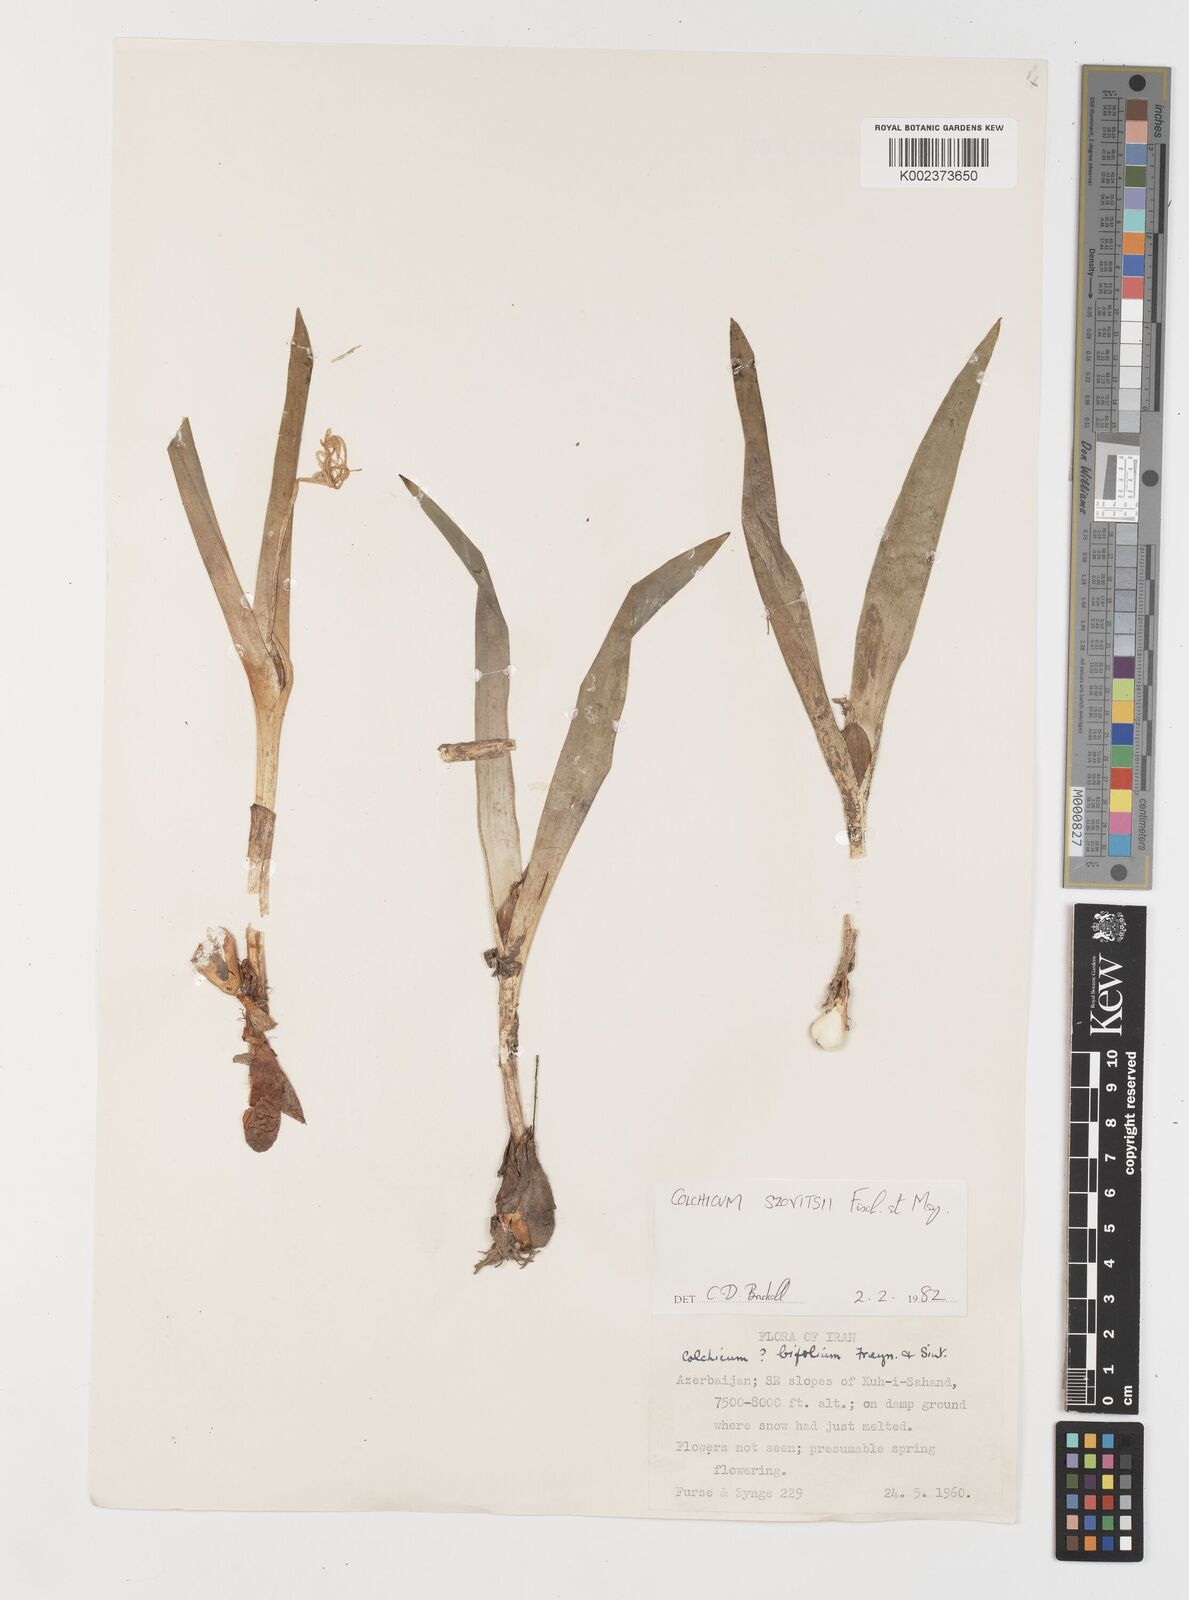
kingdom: Plantae
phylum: Tracheophyta
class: Liliopsida
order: Liliales
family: Colchicaceae
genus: Colchicum
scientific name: Colchicum szovitsii
